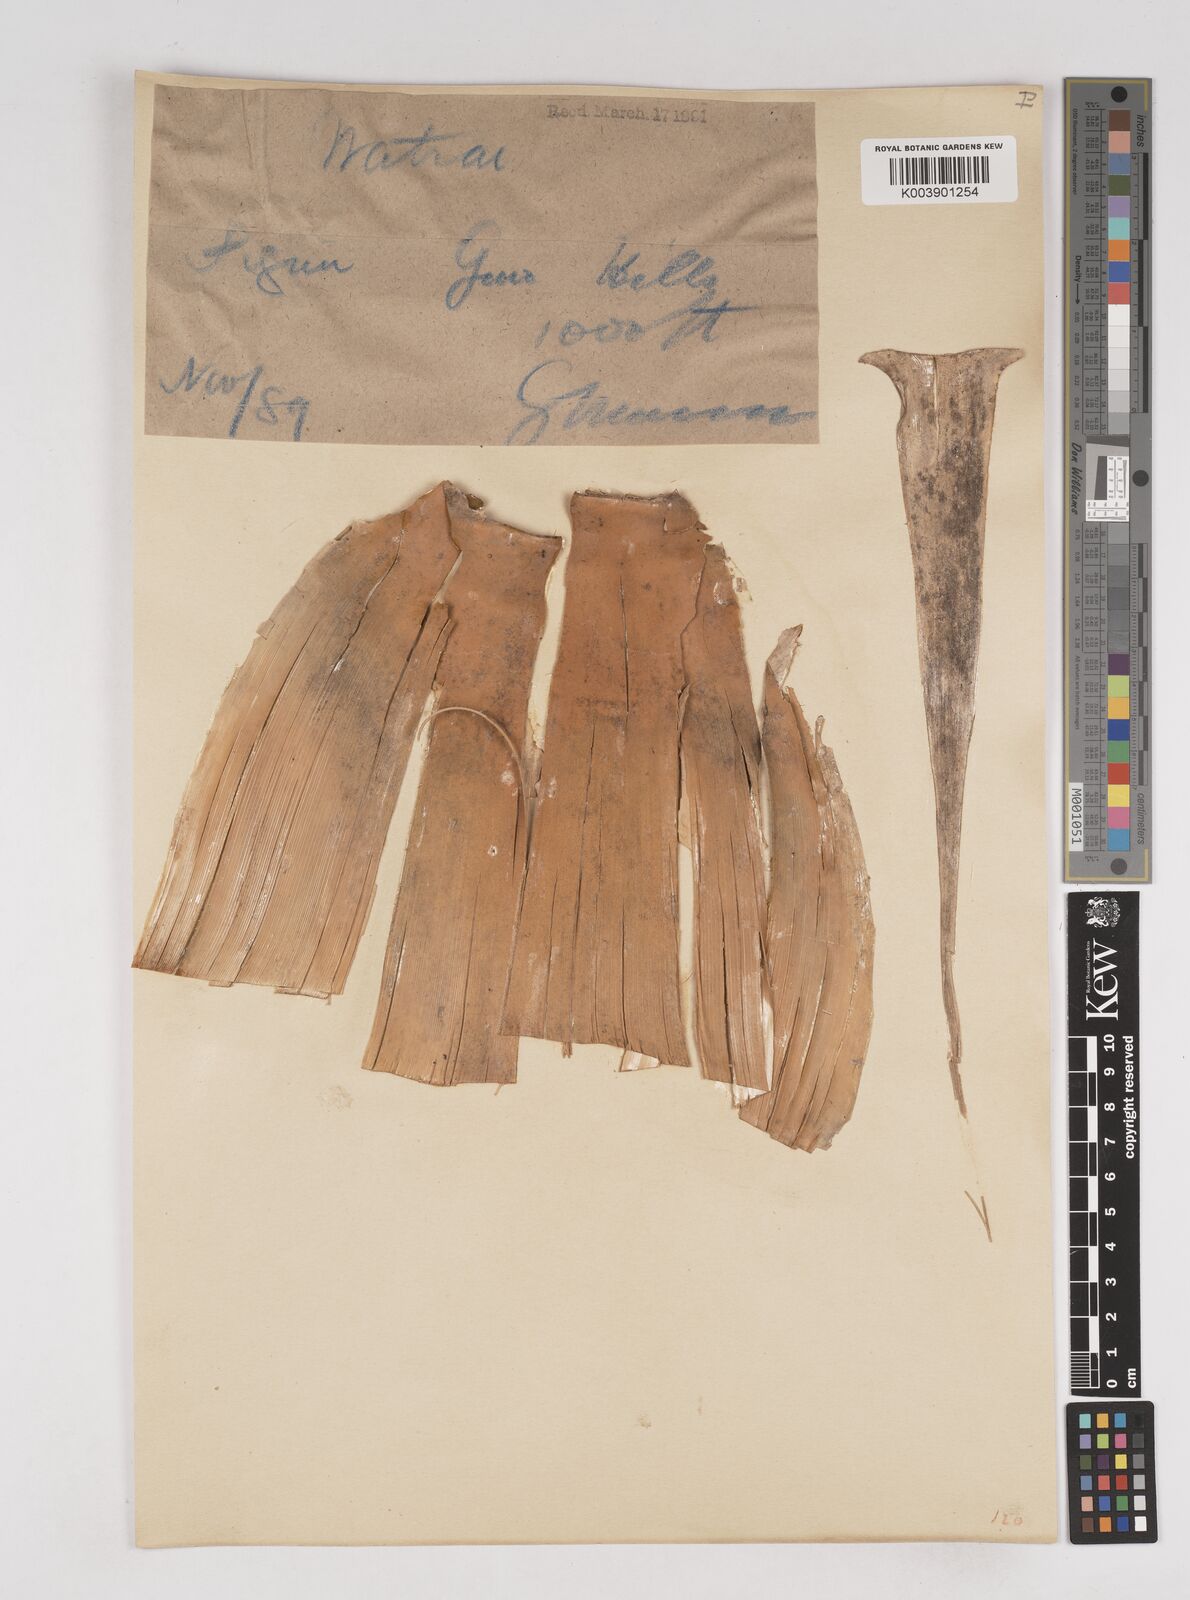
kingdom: Plantae
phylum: Tracheophyta
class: Liliopsida
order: Poales
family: Poaceae
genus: Melocanna
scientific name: Melocanna baccifera
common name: Berry bamboo
